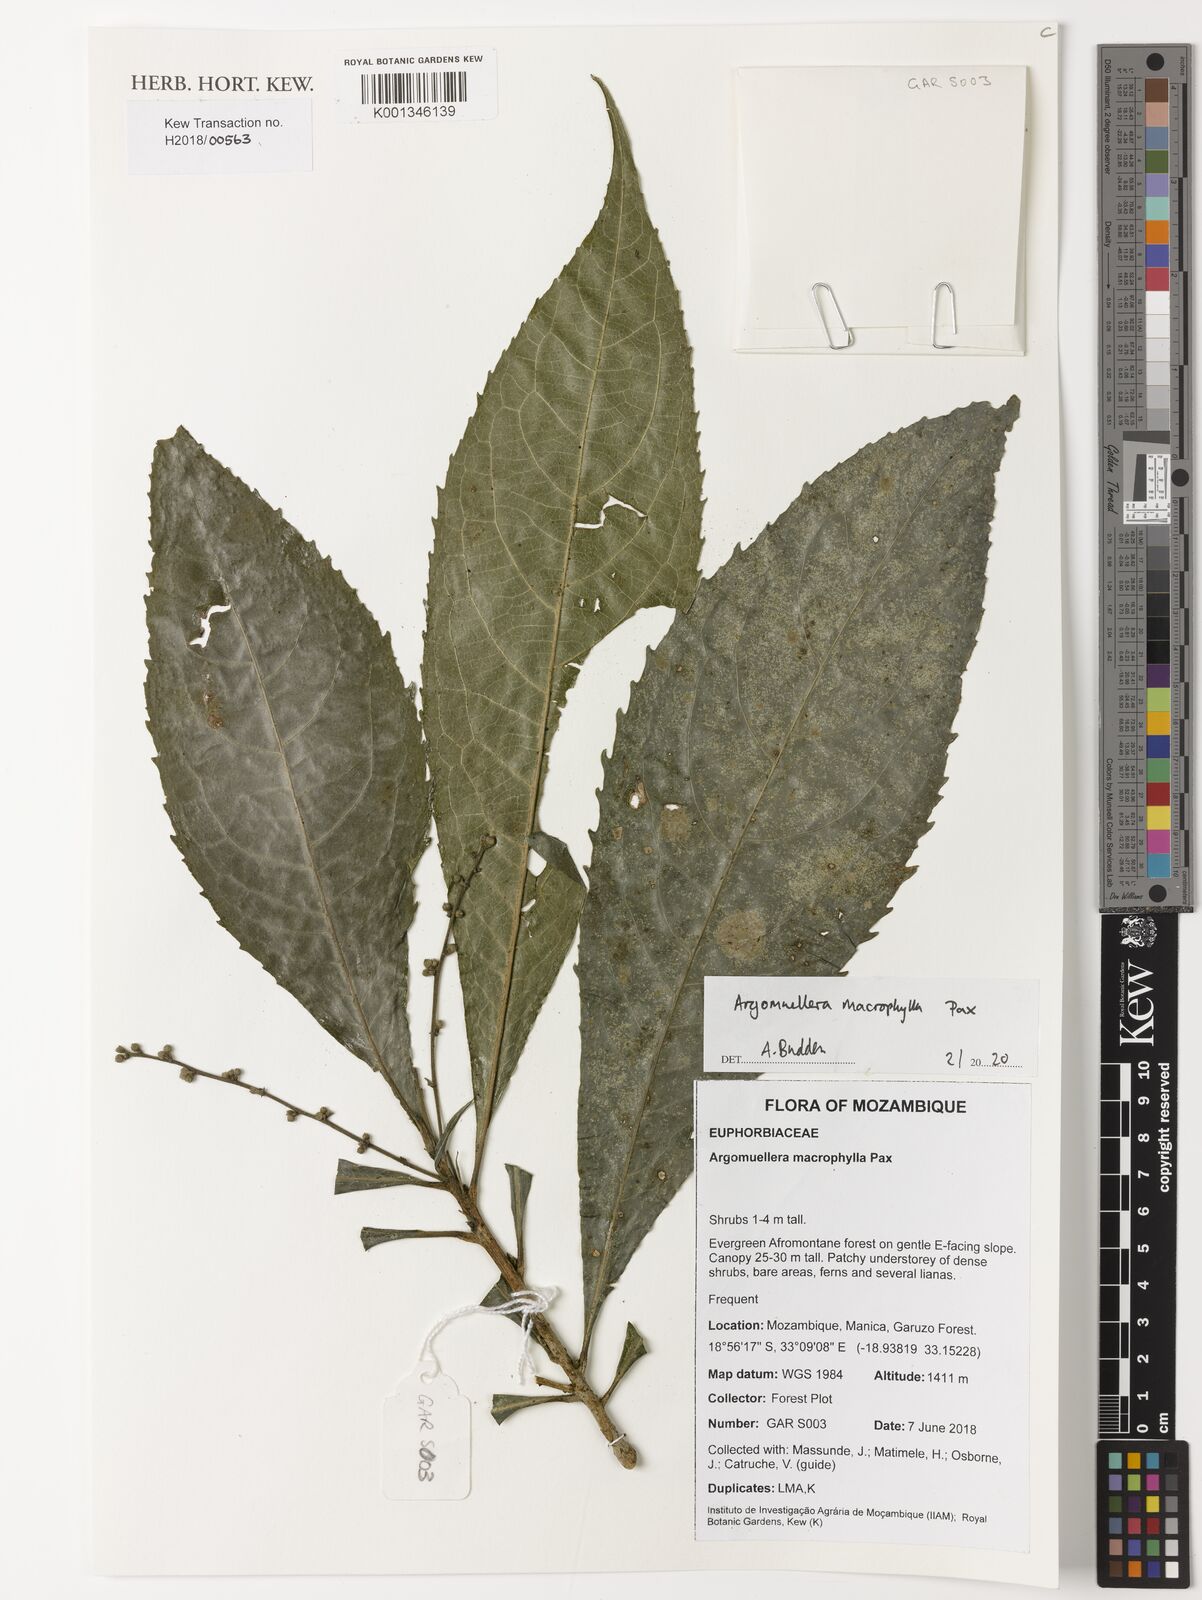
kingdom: Plantae
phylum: Tracheophyta
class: Magnoliopsida
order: Malpighiales
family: Euphorbiaceae
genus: Argomuellera
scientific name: Argomuellera macrophylla
